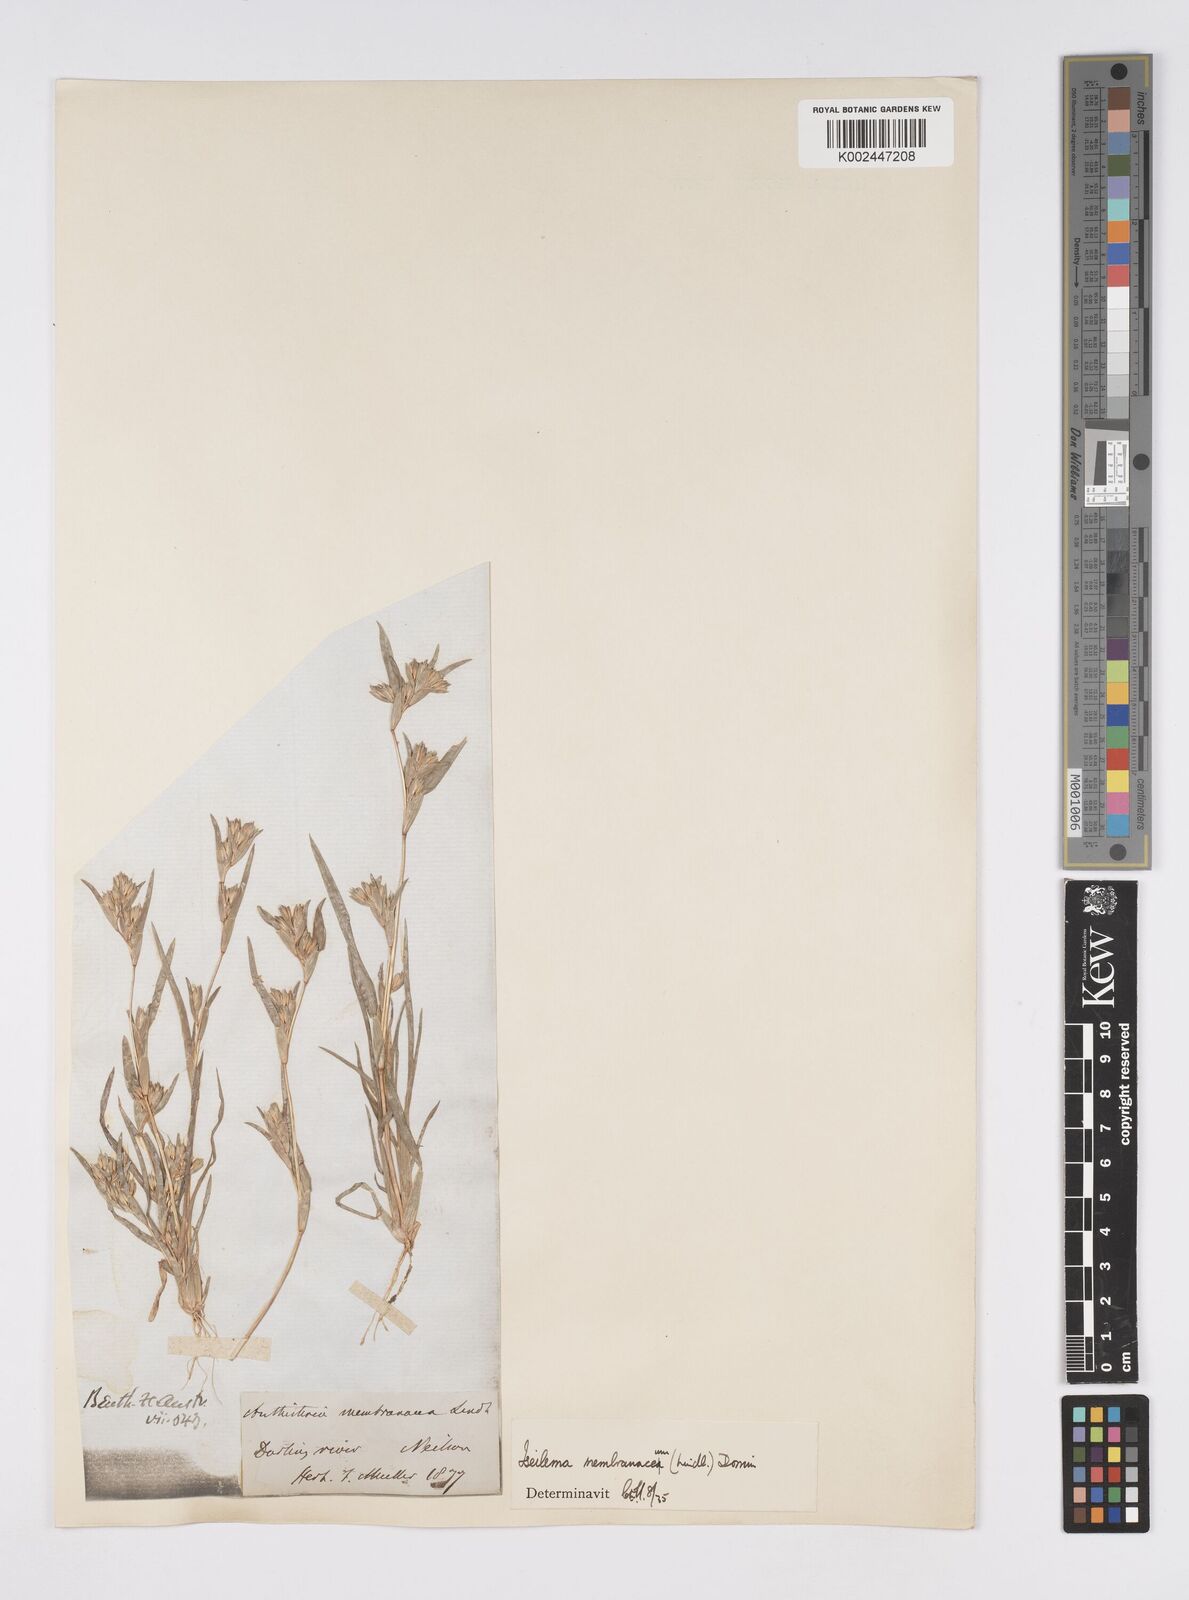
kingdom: Plantae
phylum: Tracheophyta
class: Liliopsida
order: Poales
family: Poaceae
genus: Iseilema
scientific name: Iseilema membranaceum
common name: Small flinders grass
